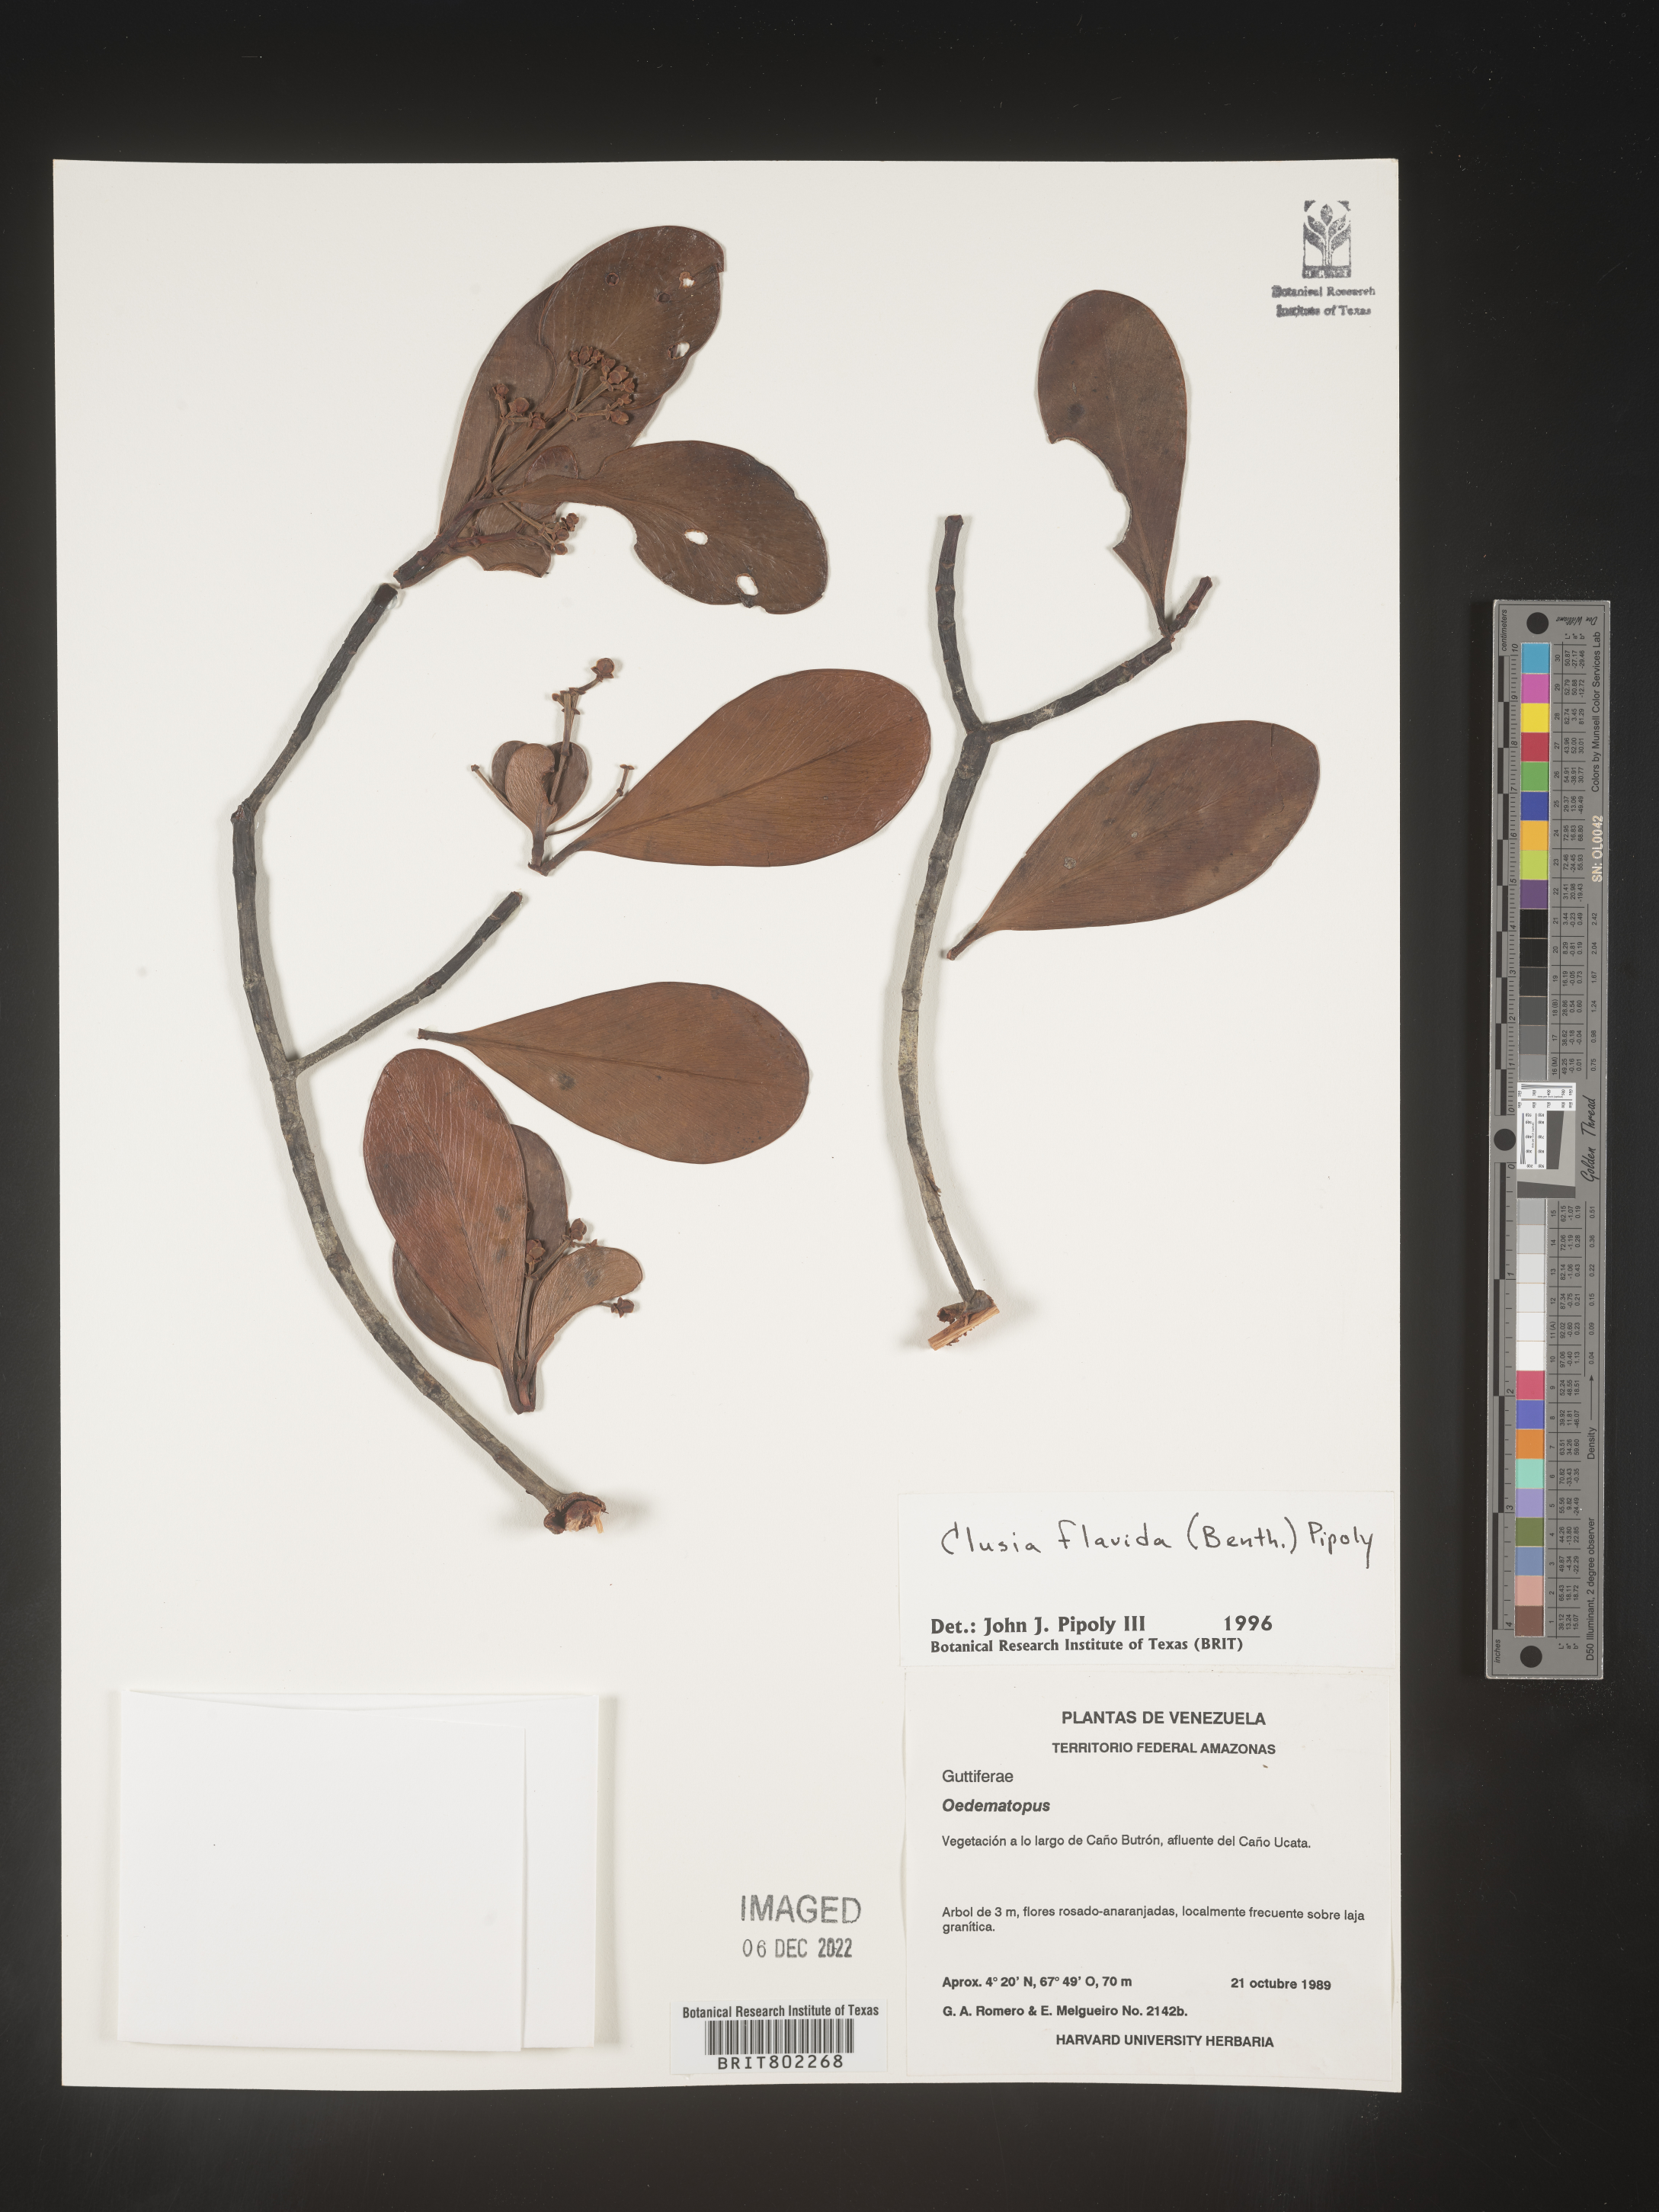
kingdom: Plantae
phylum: Tracheophyta
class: Magnoliopsida
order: Malpighiales
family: Clusiaceae
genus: Clusia
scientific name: Clusia flavida
